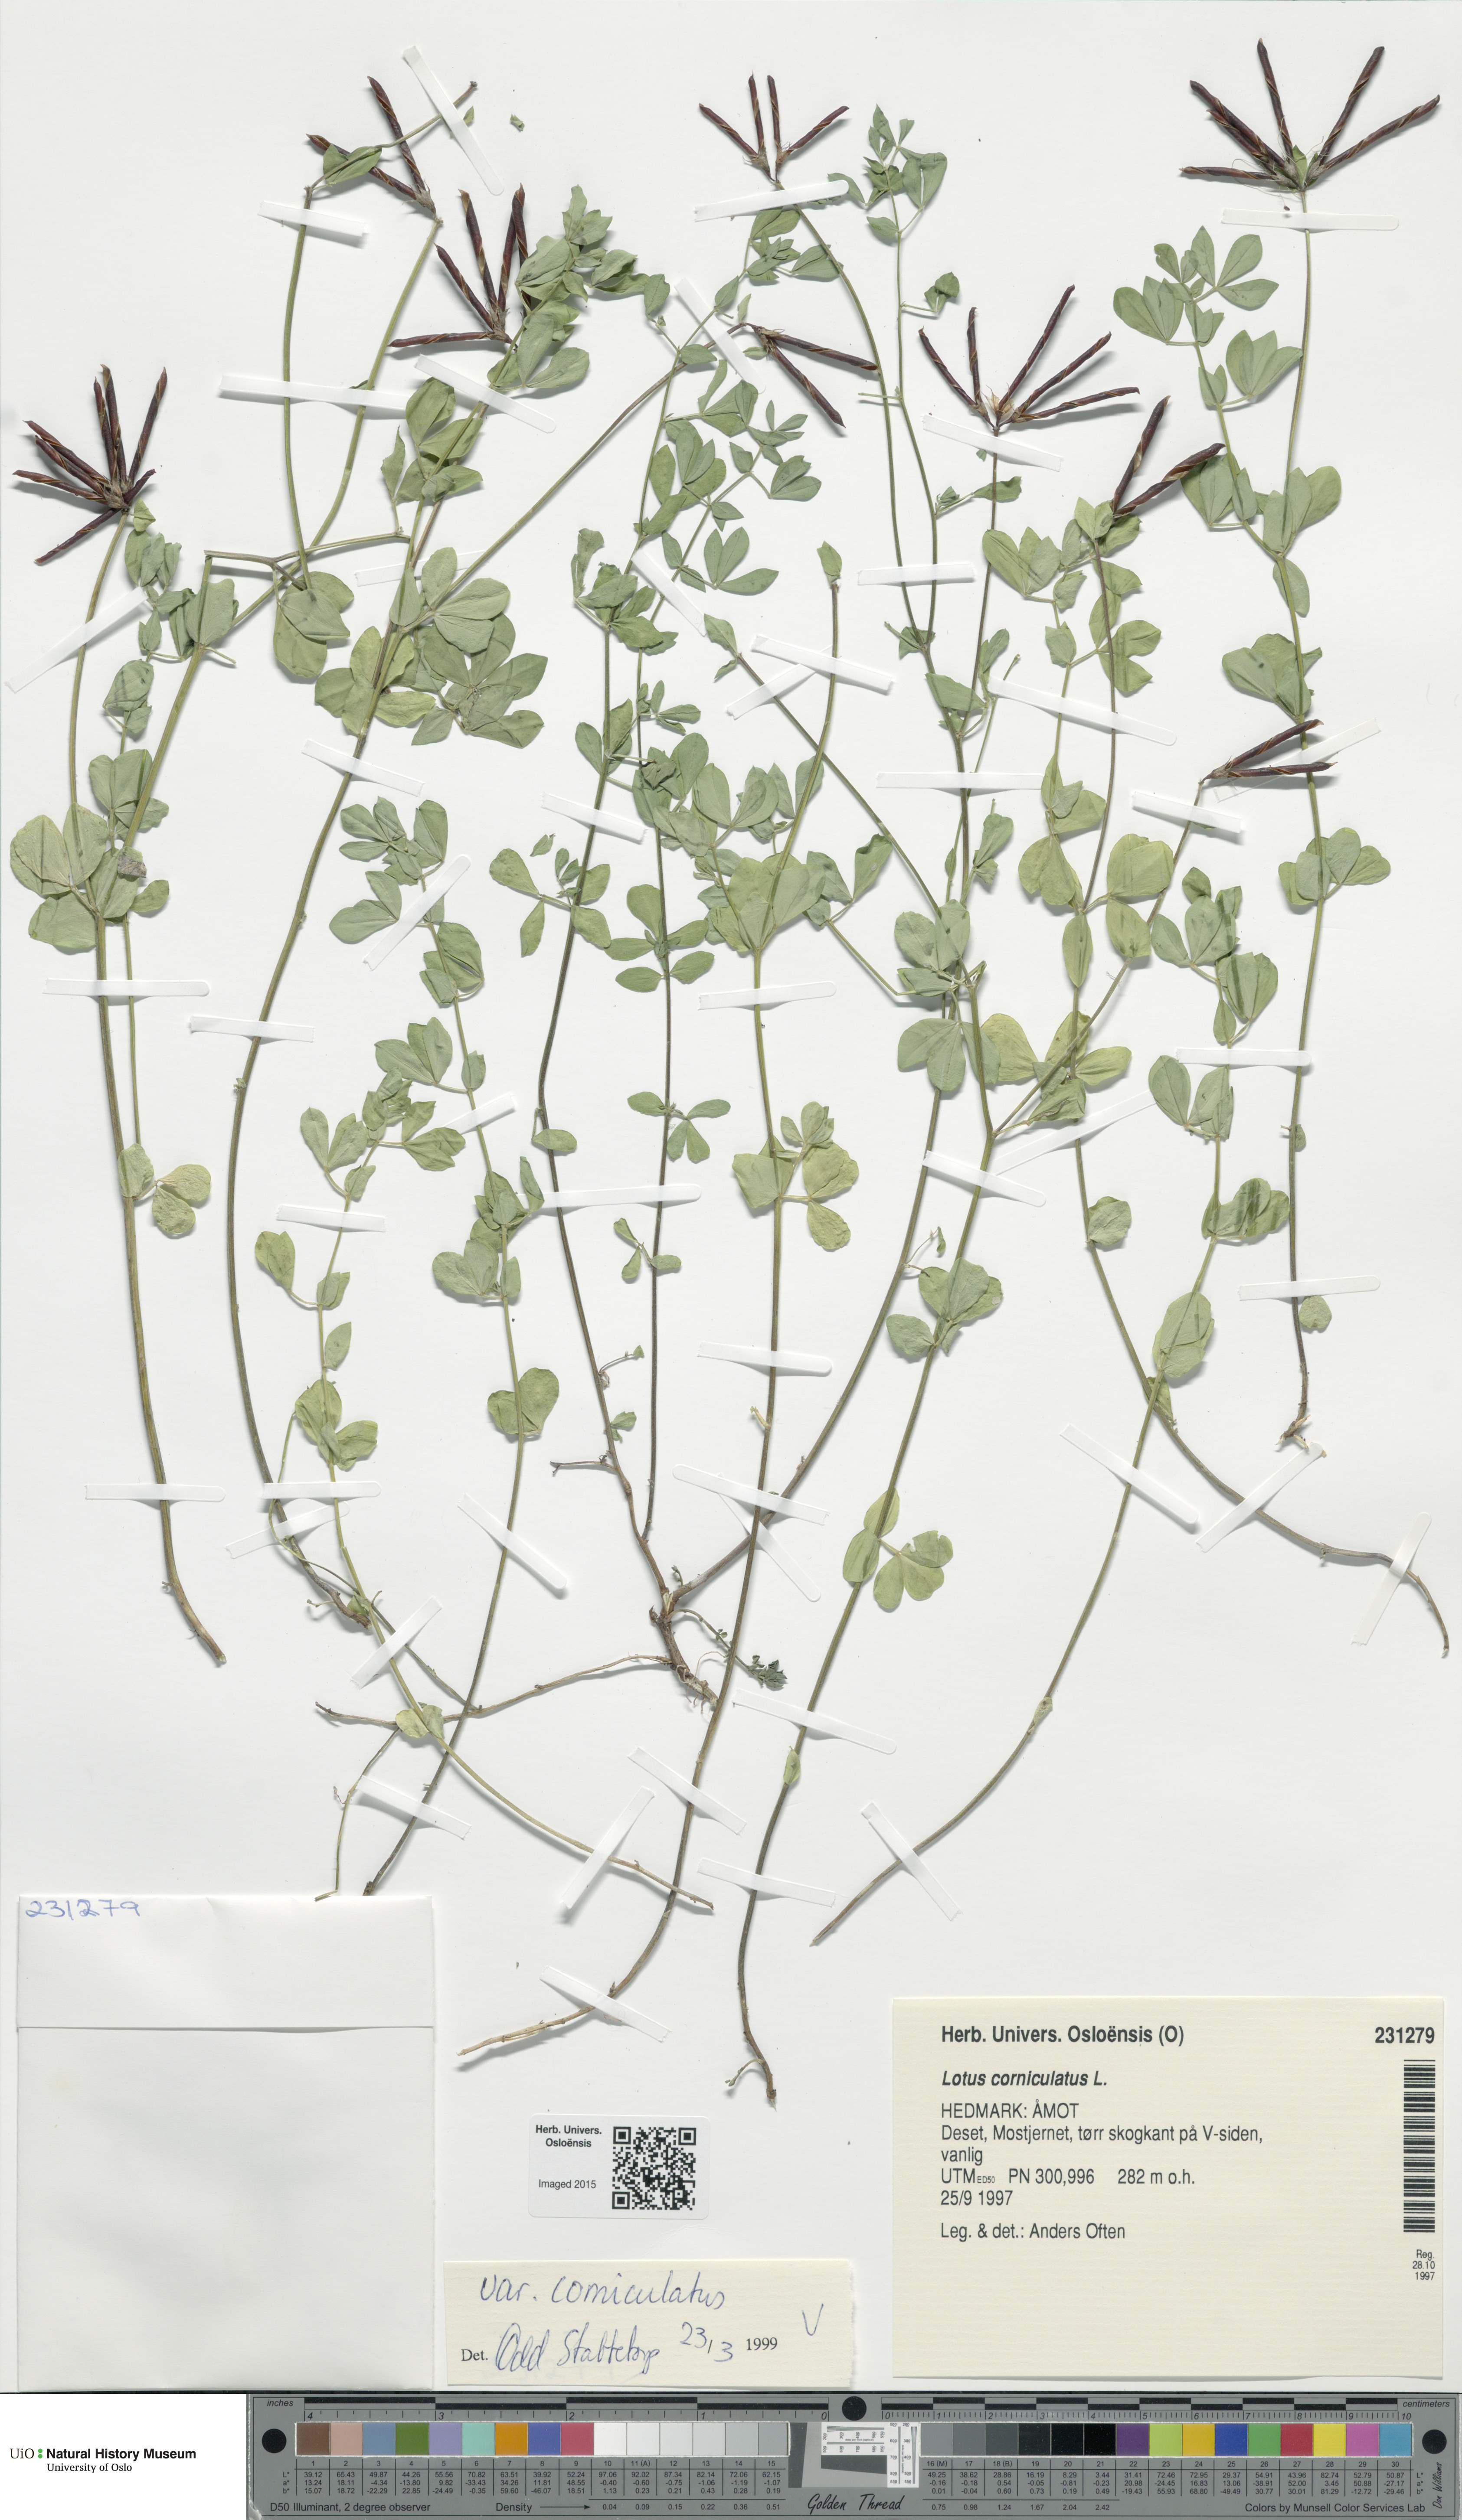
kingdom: Plantae
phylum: Tracheophyta
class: Magnoliopsida
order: Fabales
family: Fabaceae
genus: Lotus
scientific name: Lotus corniculatus
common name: Common bird's-foot-trefoil
